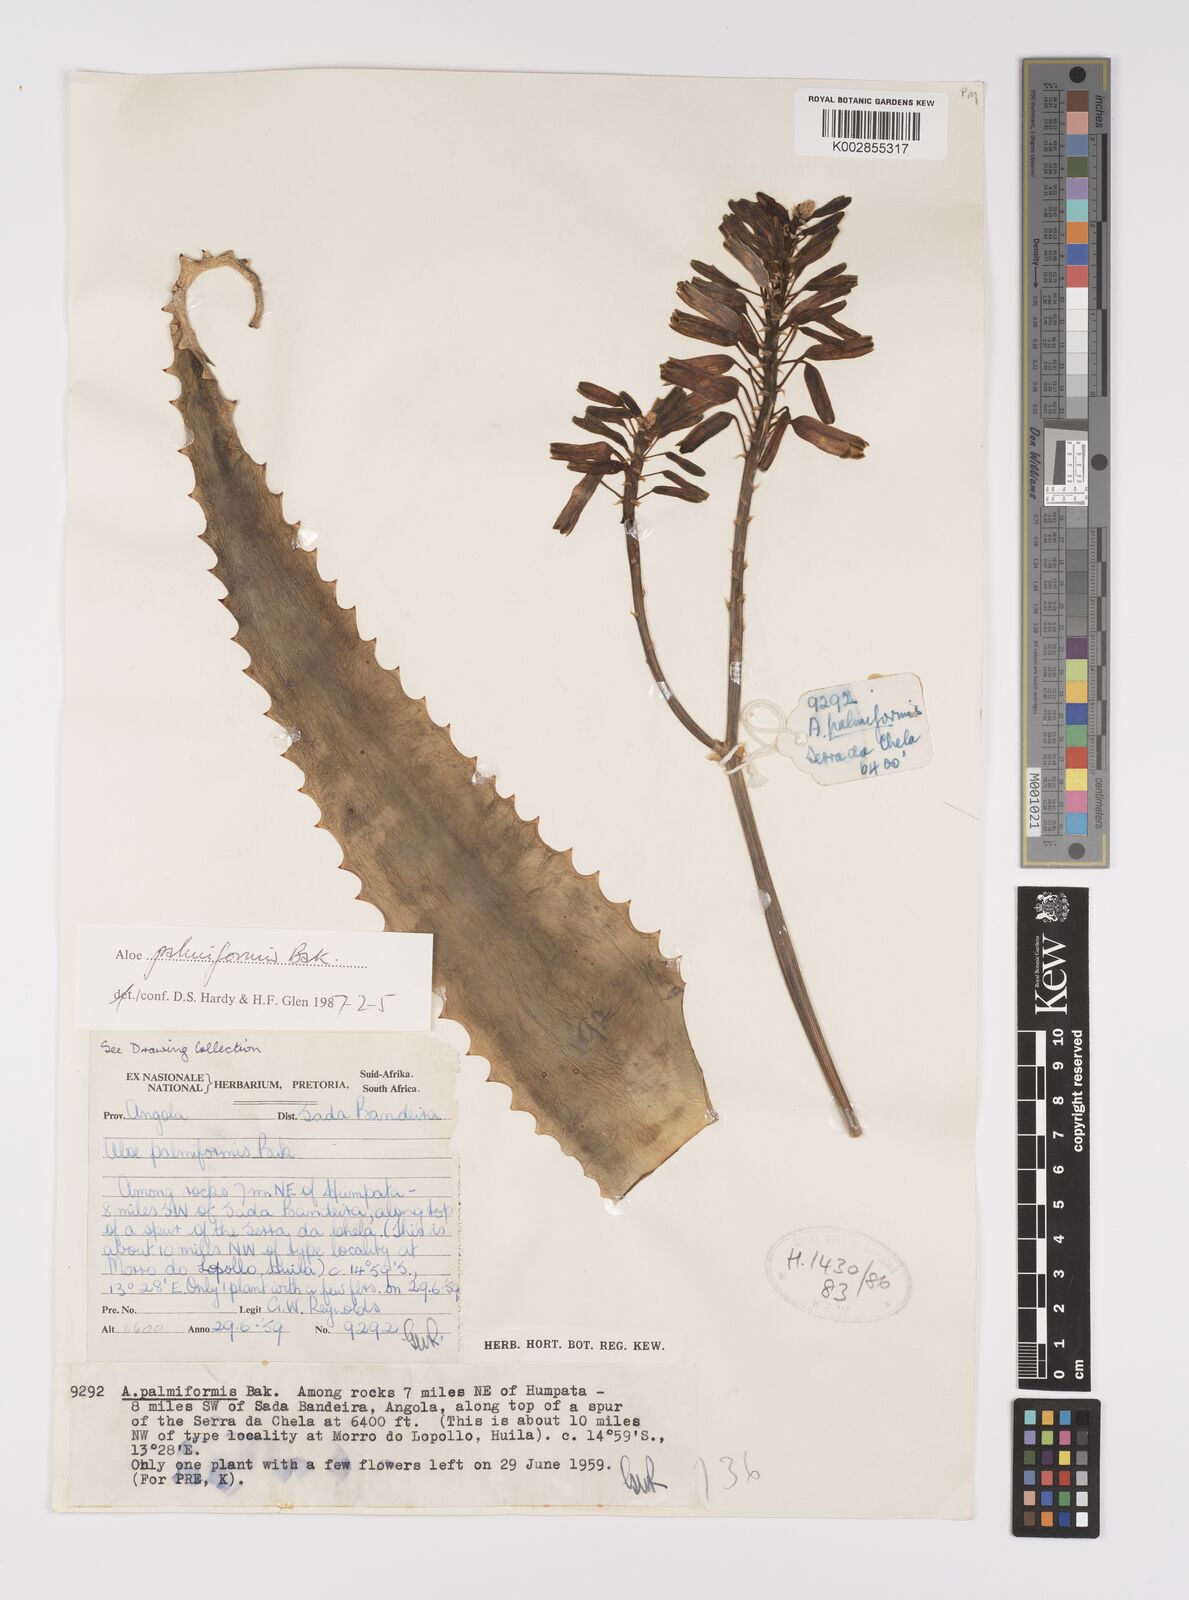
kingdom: Plantae
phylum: Tracheophyta
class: Liliopsida
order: Asparagales
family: Asphodelaceae
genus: Aloe
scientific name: Aloe palmiformis
